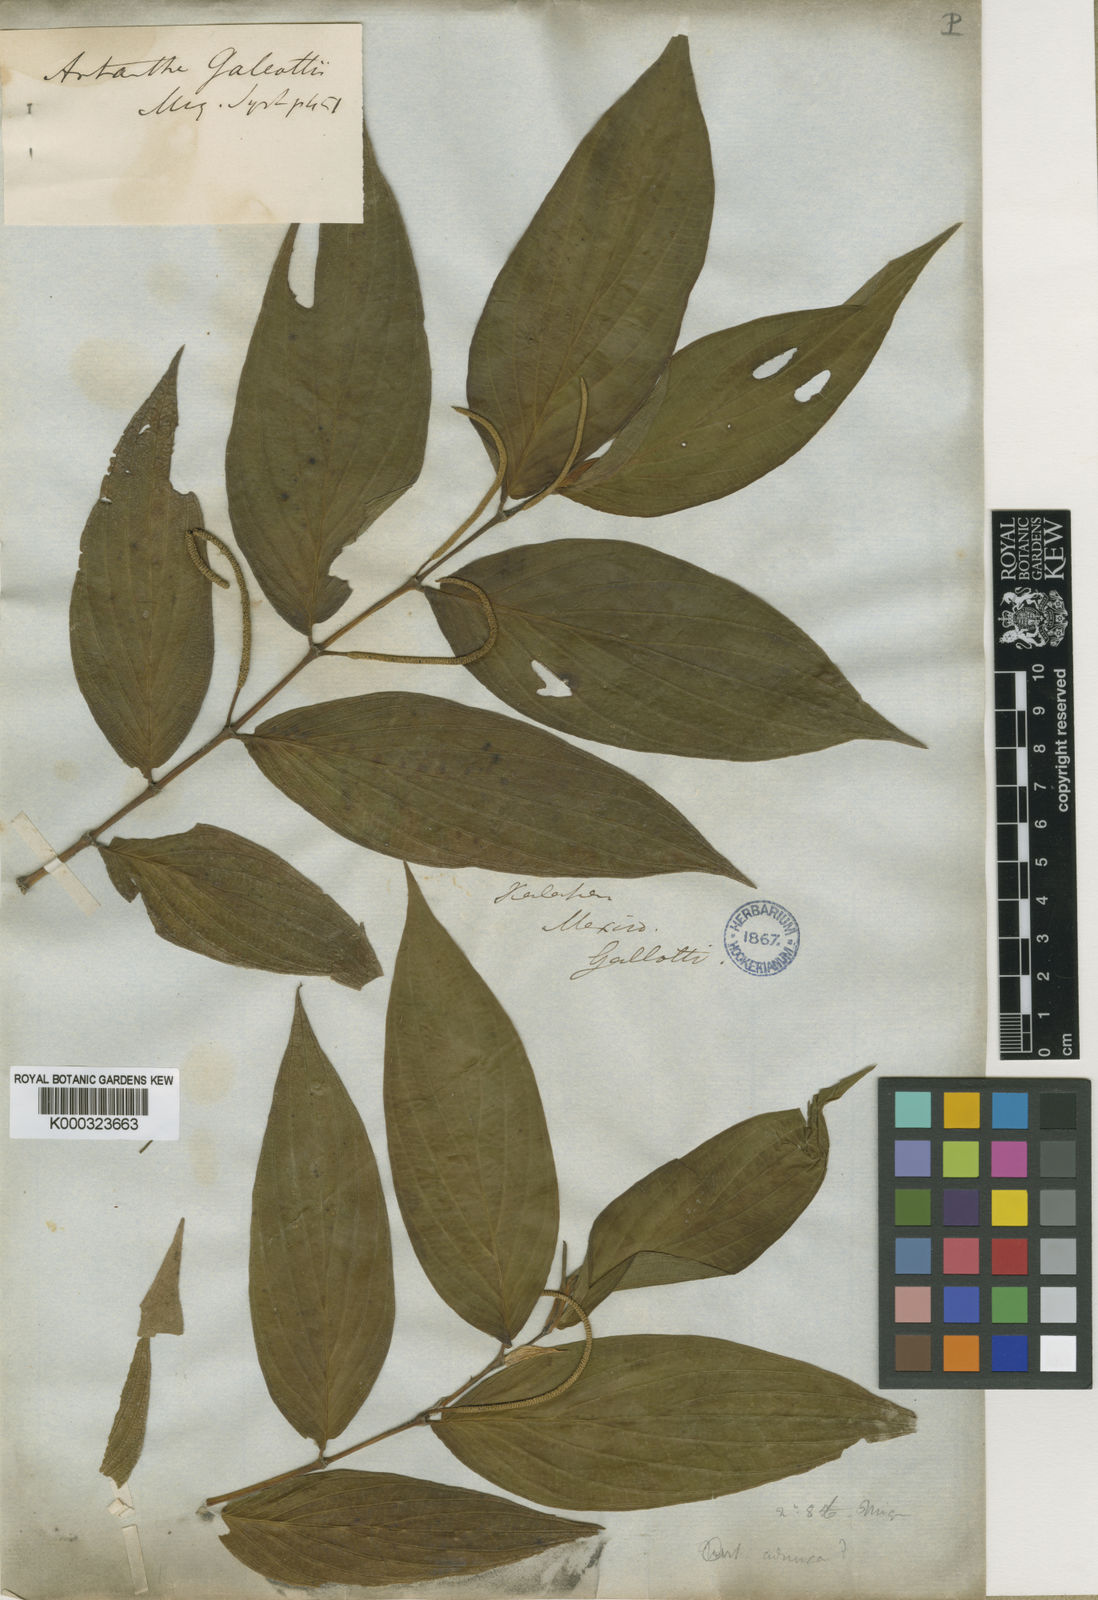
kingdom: Plantae
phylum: Tracheophyta
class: Magnoliopsida
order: Piperales
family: Piperaceae
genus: Piper
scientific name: Piper amalago
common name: Pepper-elder
